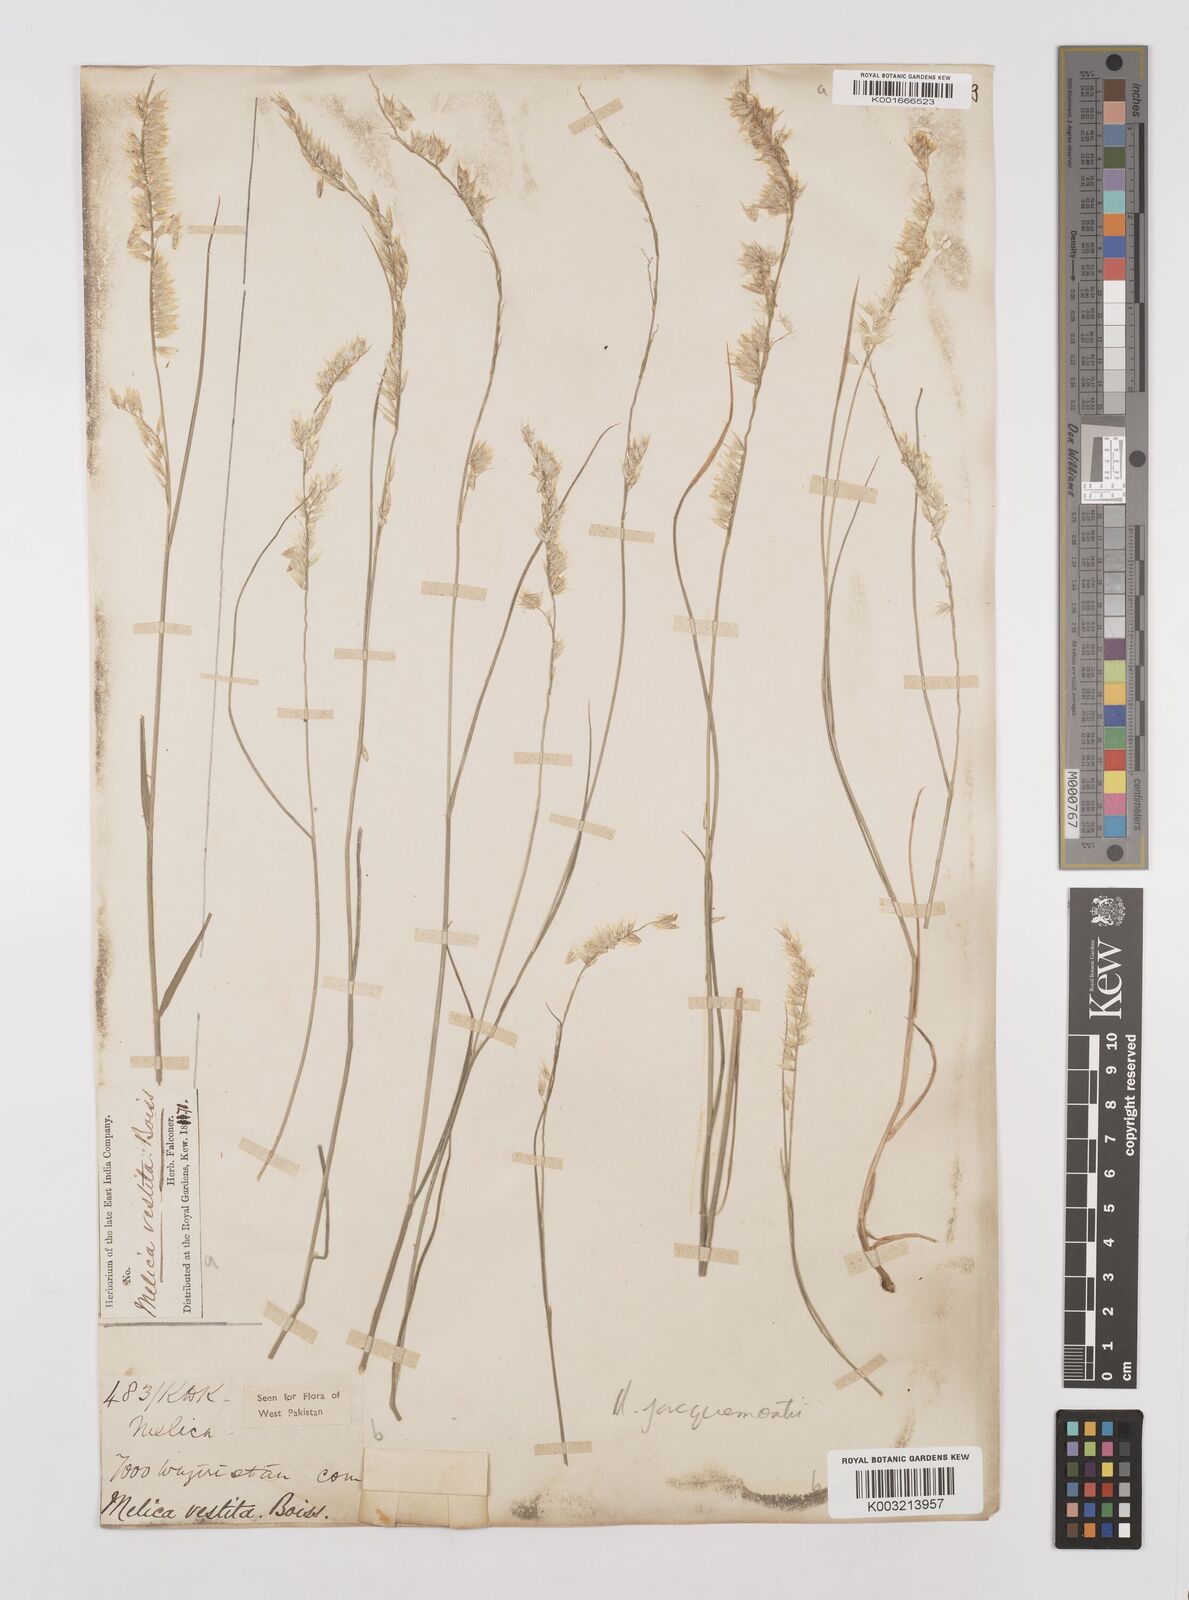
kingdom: Plantae
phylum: Tracheophyta
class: Liliopsida
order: Poales
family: Poaceae
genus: Melica
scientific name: Melica persica
